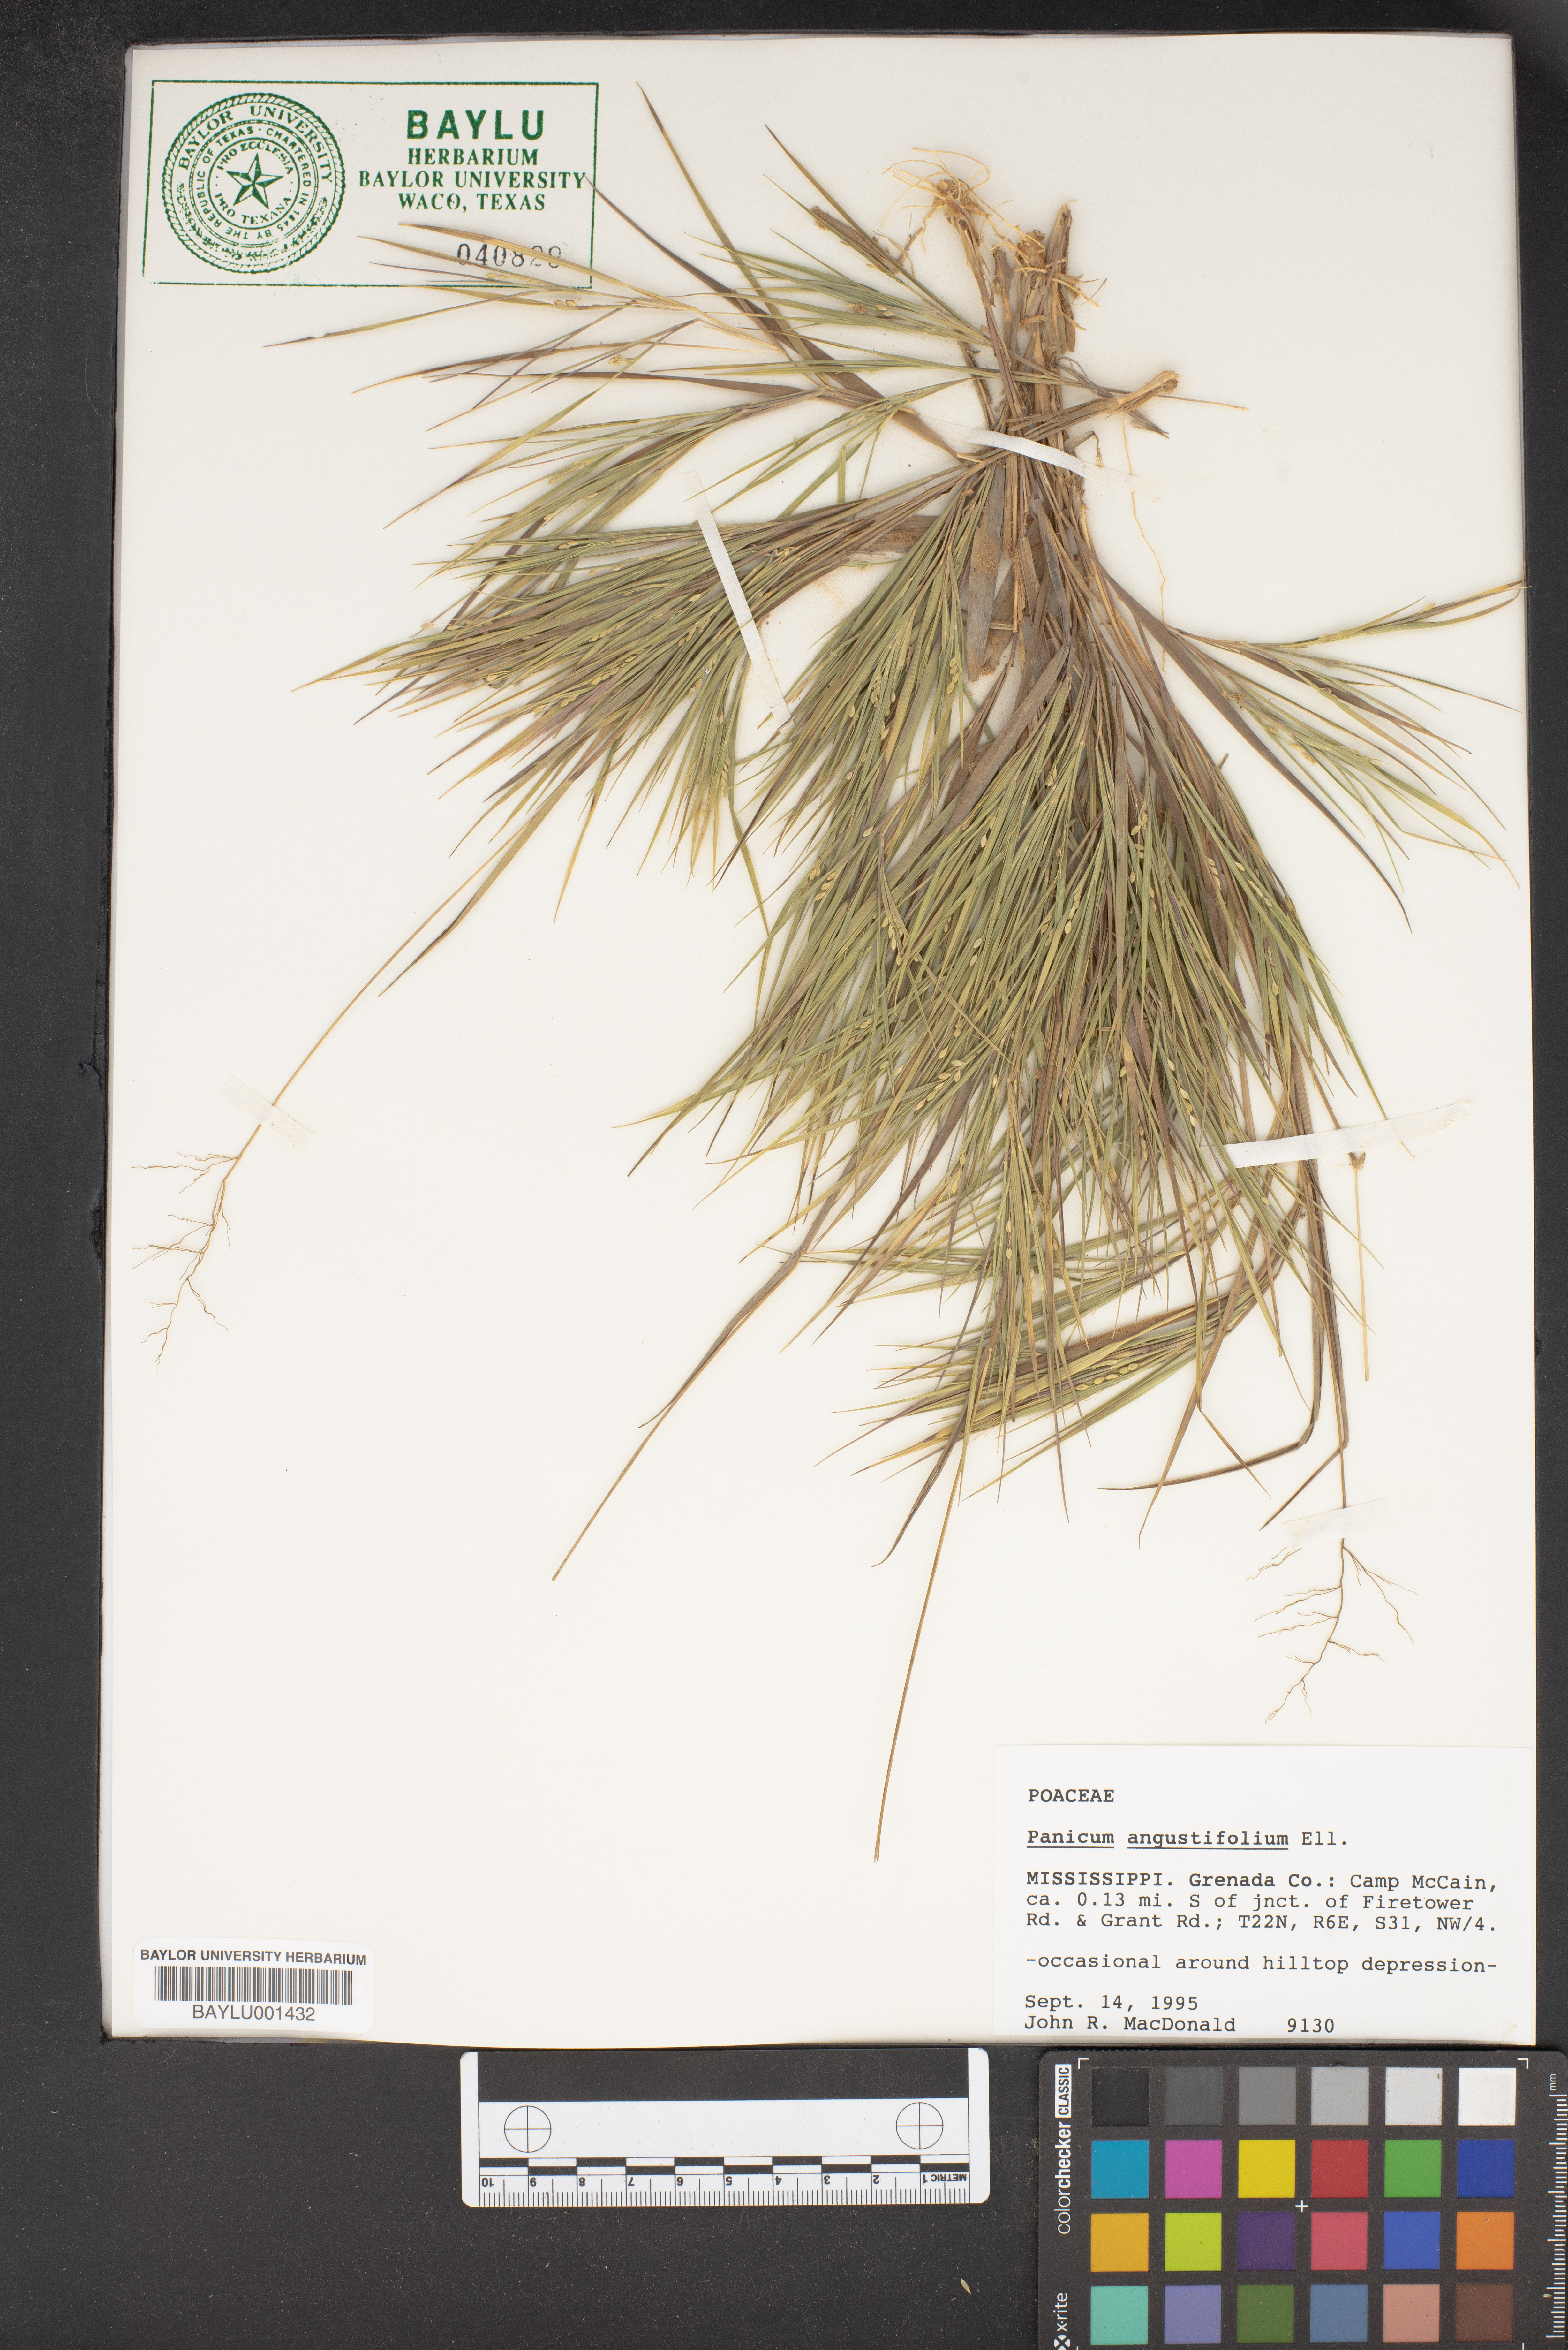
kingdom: Plantae
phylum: Tracheophyta
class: Liliopsida
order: Poales
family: Poaceae
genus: Dichanthelium
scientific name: Dichanthelium dichotomum
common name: Cypress panicgrass
